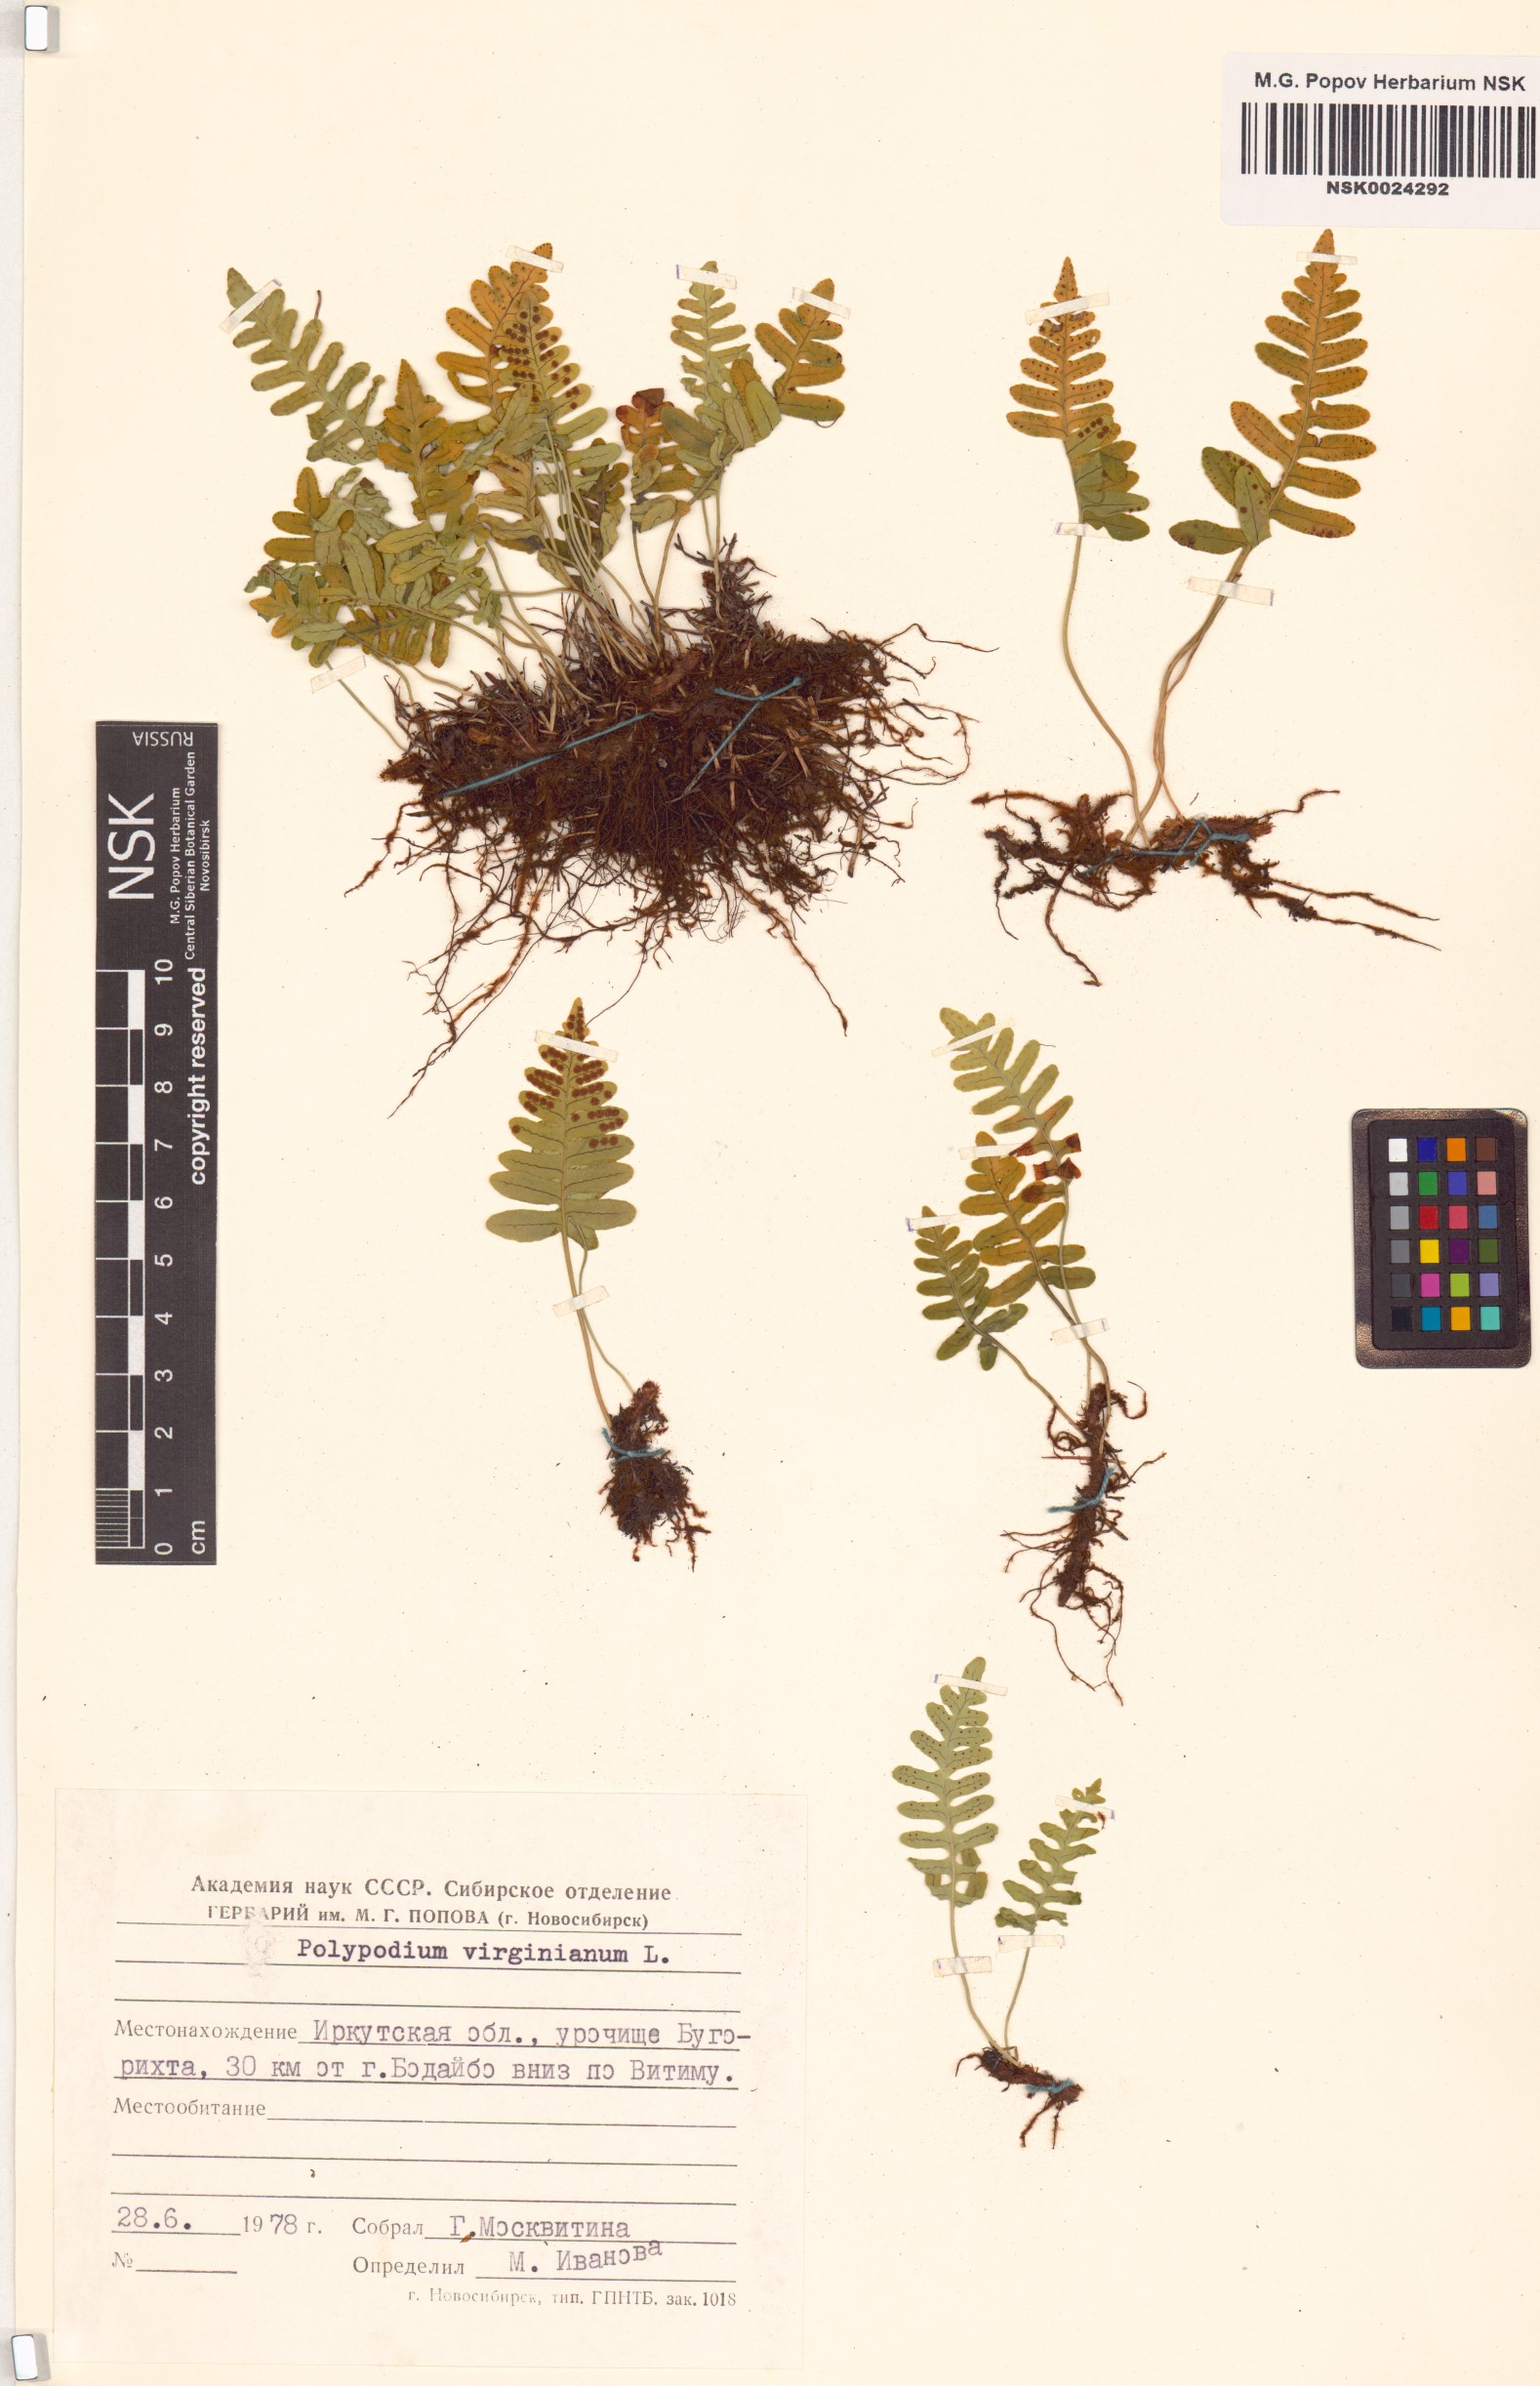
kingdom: Plantae
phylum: Tracheophyta
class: Polypodiopsida
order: Polypodiales
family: Polypodiaceae
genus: Polypodium
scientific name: Polypodium virginianum
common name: American wall fern
